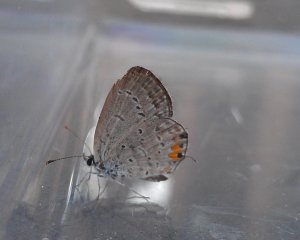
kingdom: Animalia
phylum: Arthropoda
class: Insecta
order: Lepidoptera
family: Lycaenidae
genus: Elkalyce
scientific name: Elkalyce comyntas
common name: Eastern Tailed-Blue
